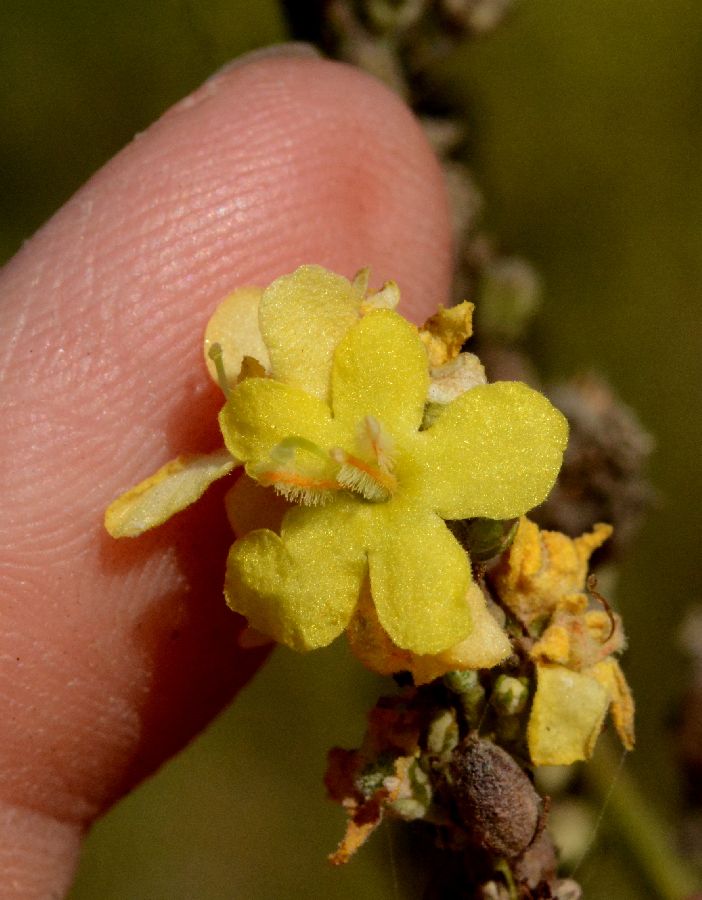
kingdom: Plantae
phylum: Tracheophyta
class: Magnoliopsida
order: Lamiales
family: Scrophulariaceae
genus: Verbascum
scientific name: Verbascum lychnitis
